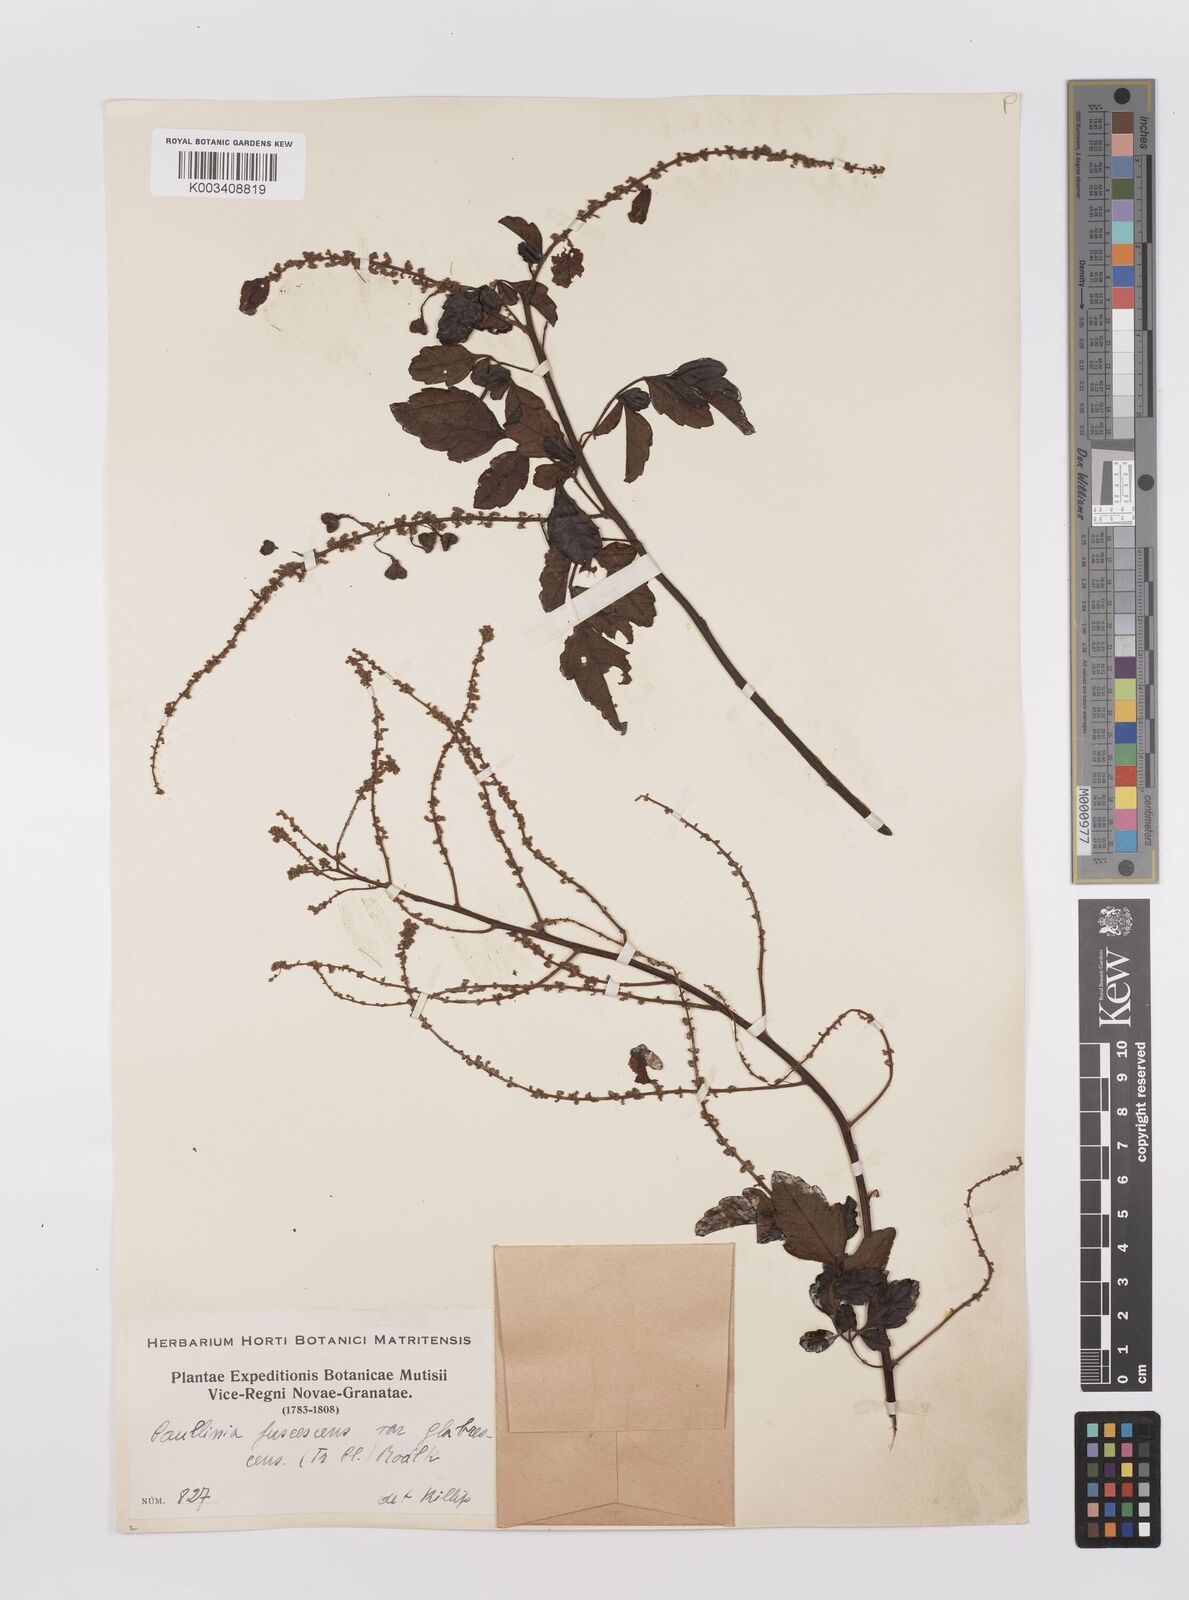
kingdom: Plantae
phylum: Tracheophyta
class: Magnoliopsida
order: Sapindales
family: Sapindaceae
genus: Paullinia
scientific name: Paullinia fuscescens
